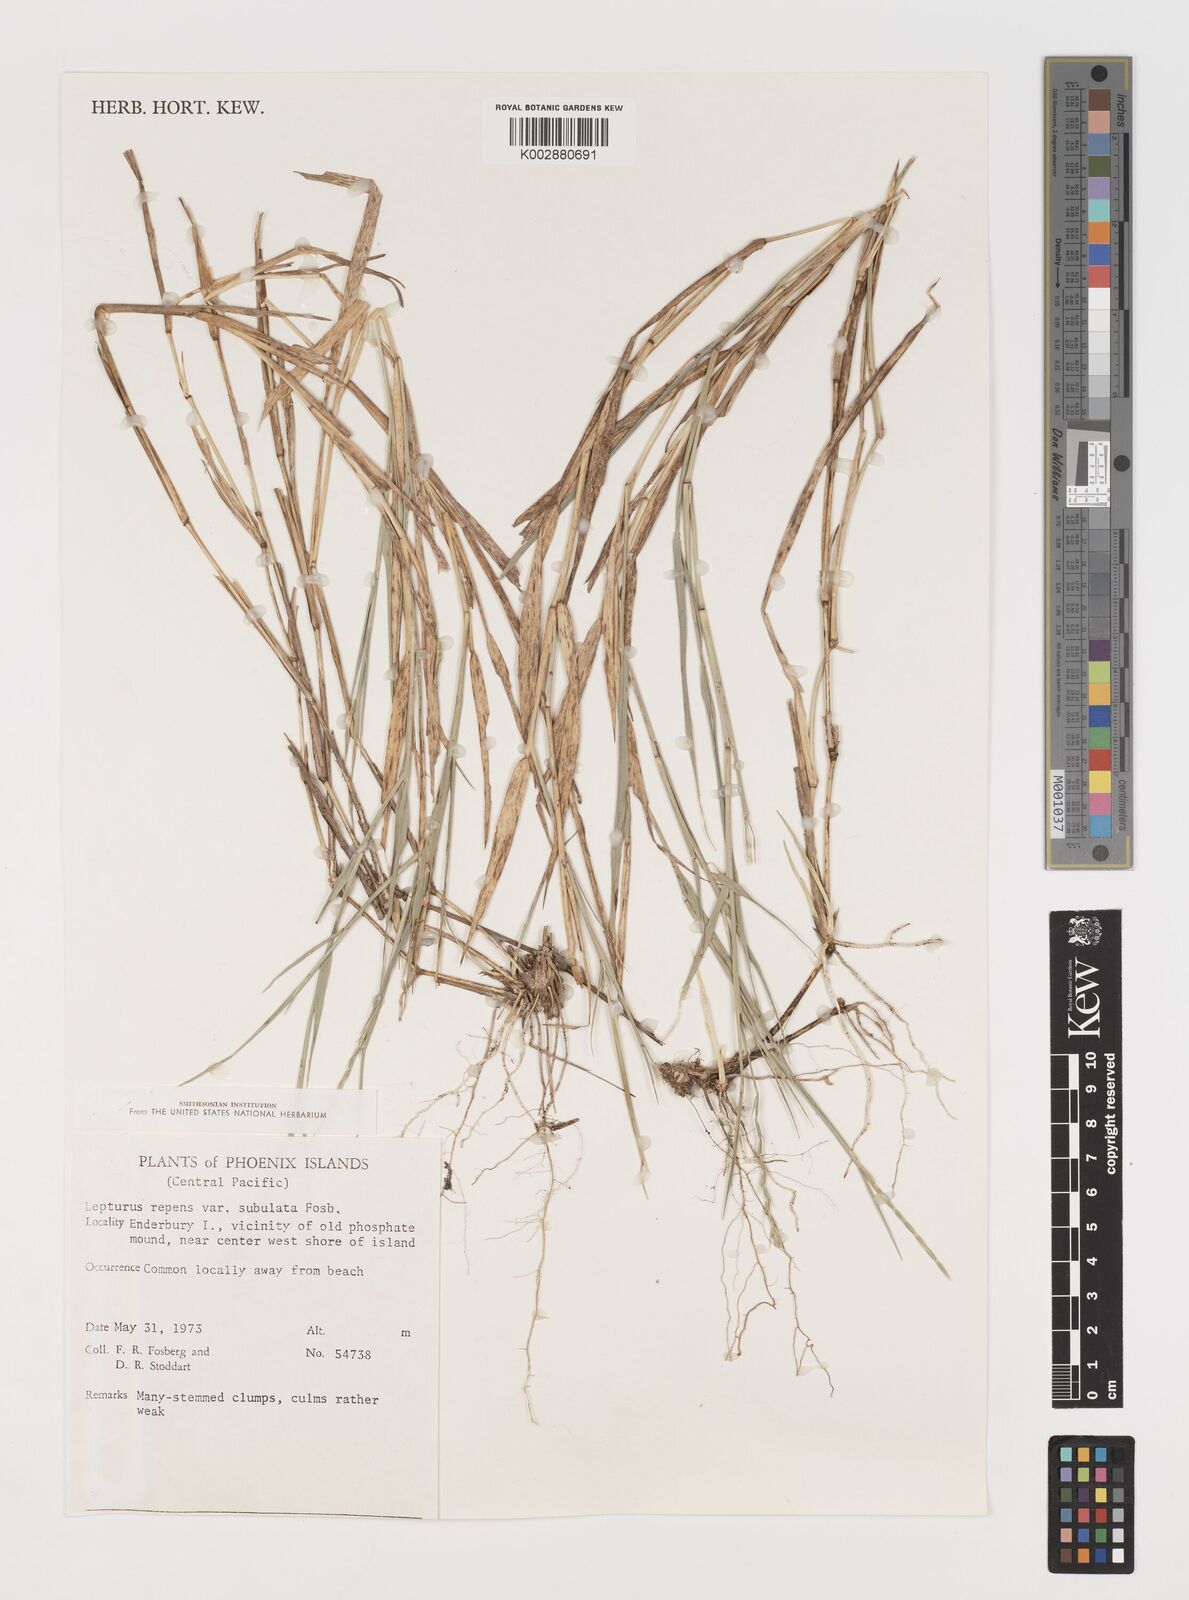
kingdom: Plantae
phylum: Tracheophyta
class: Liliopsida
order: Poales
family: Poaceae
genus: Lepturus
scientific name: Lepturus repens
